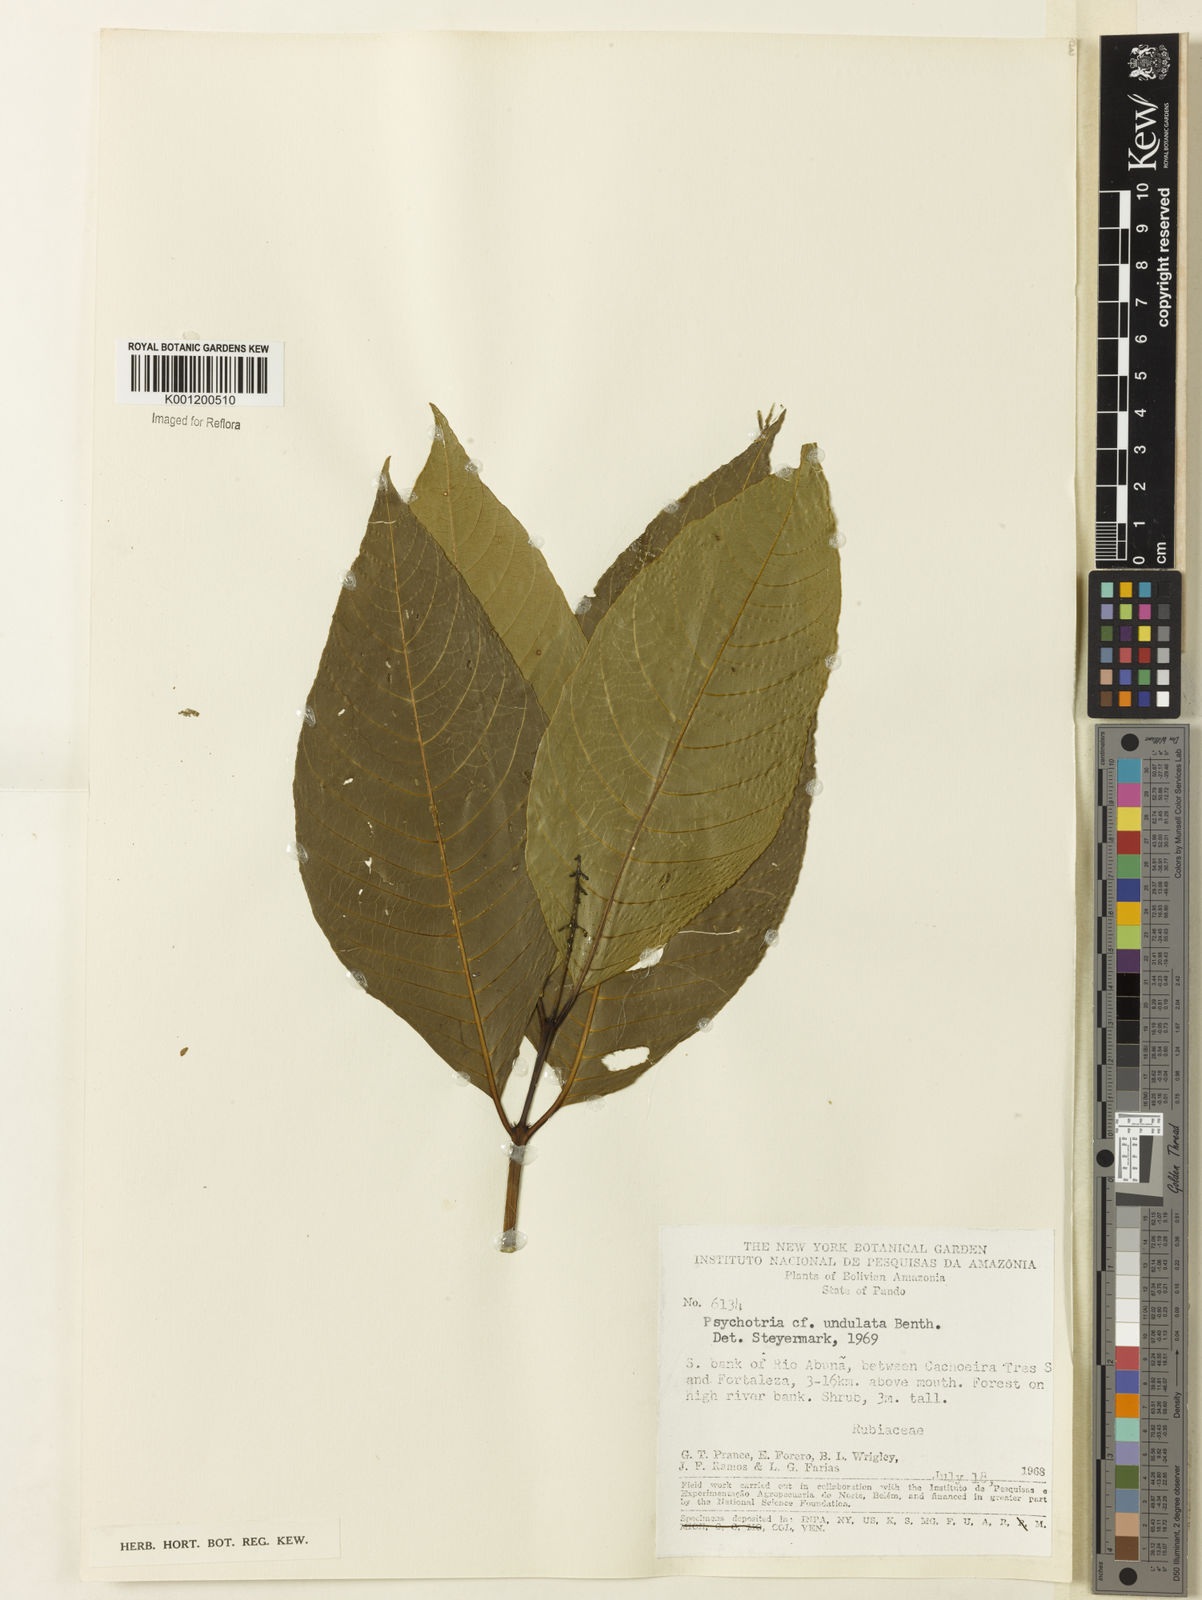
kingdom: Plantae
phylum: Tracheophyta
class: Magnoliopsida
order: Gentianales
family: Rubiaceae
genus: Psychotria
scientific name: Psychotria undulata
